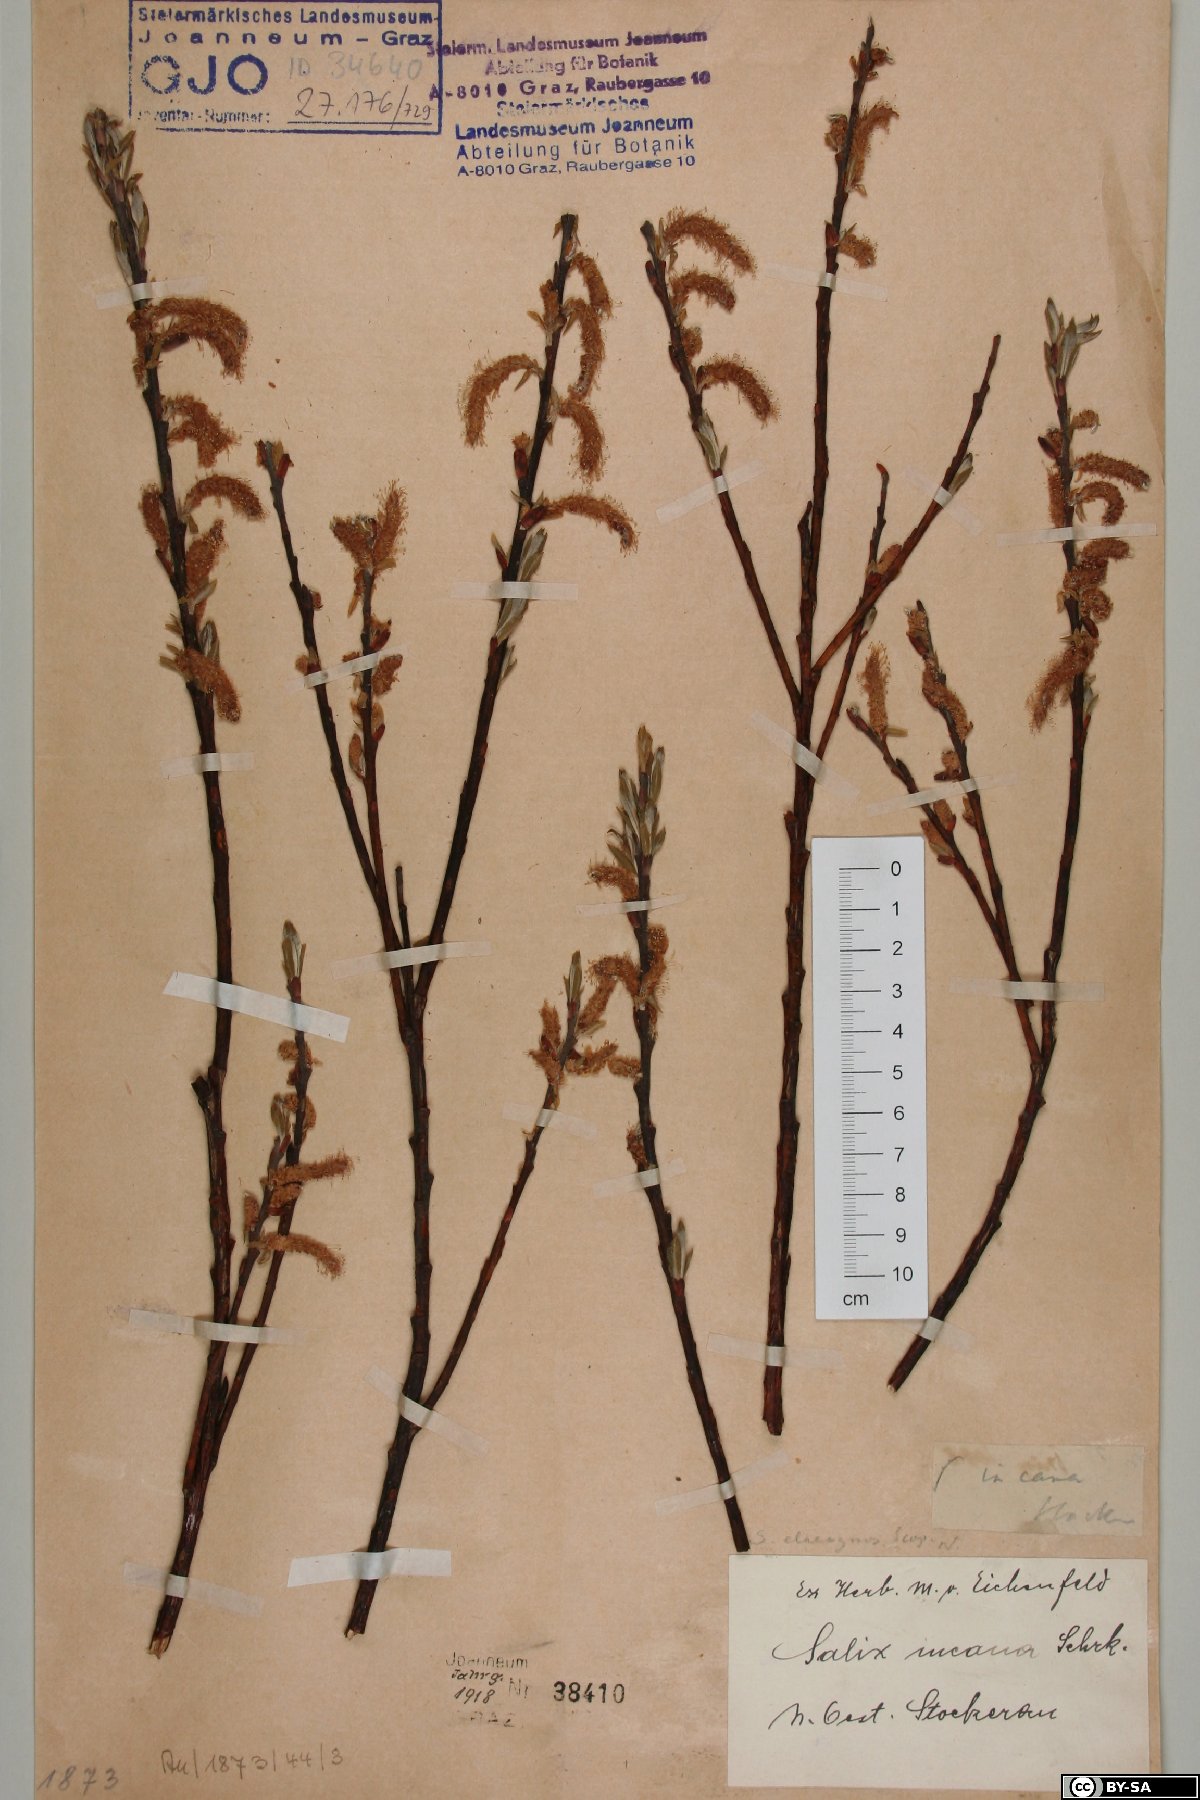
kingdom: Plantae
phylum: Tracheophyta
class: Magnoliopsida
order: Malpighiales
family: Salicaceae
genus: Salix
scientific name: Salix eleagnos
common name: Elaeagnus willow
